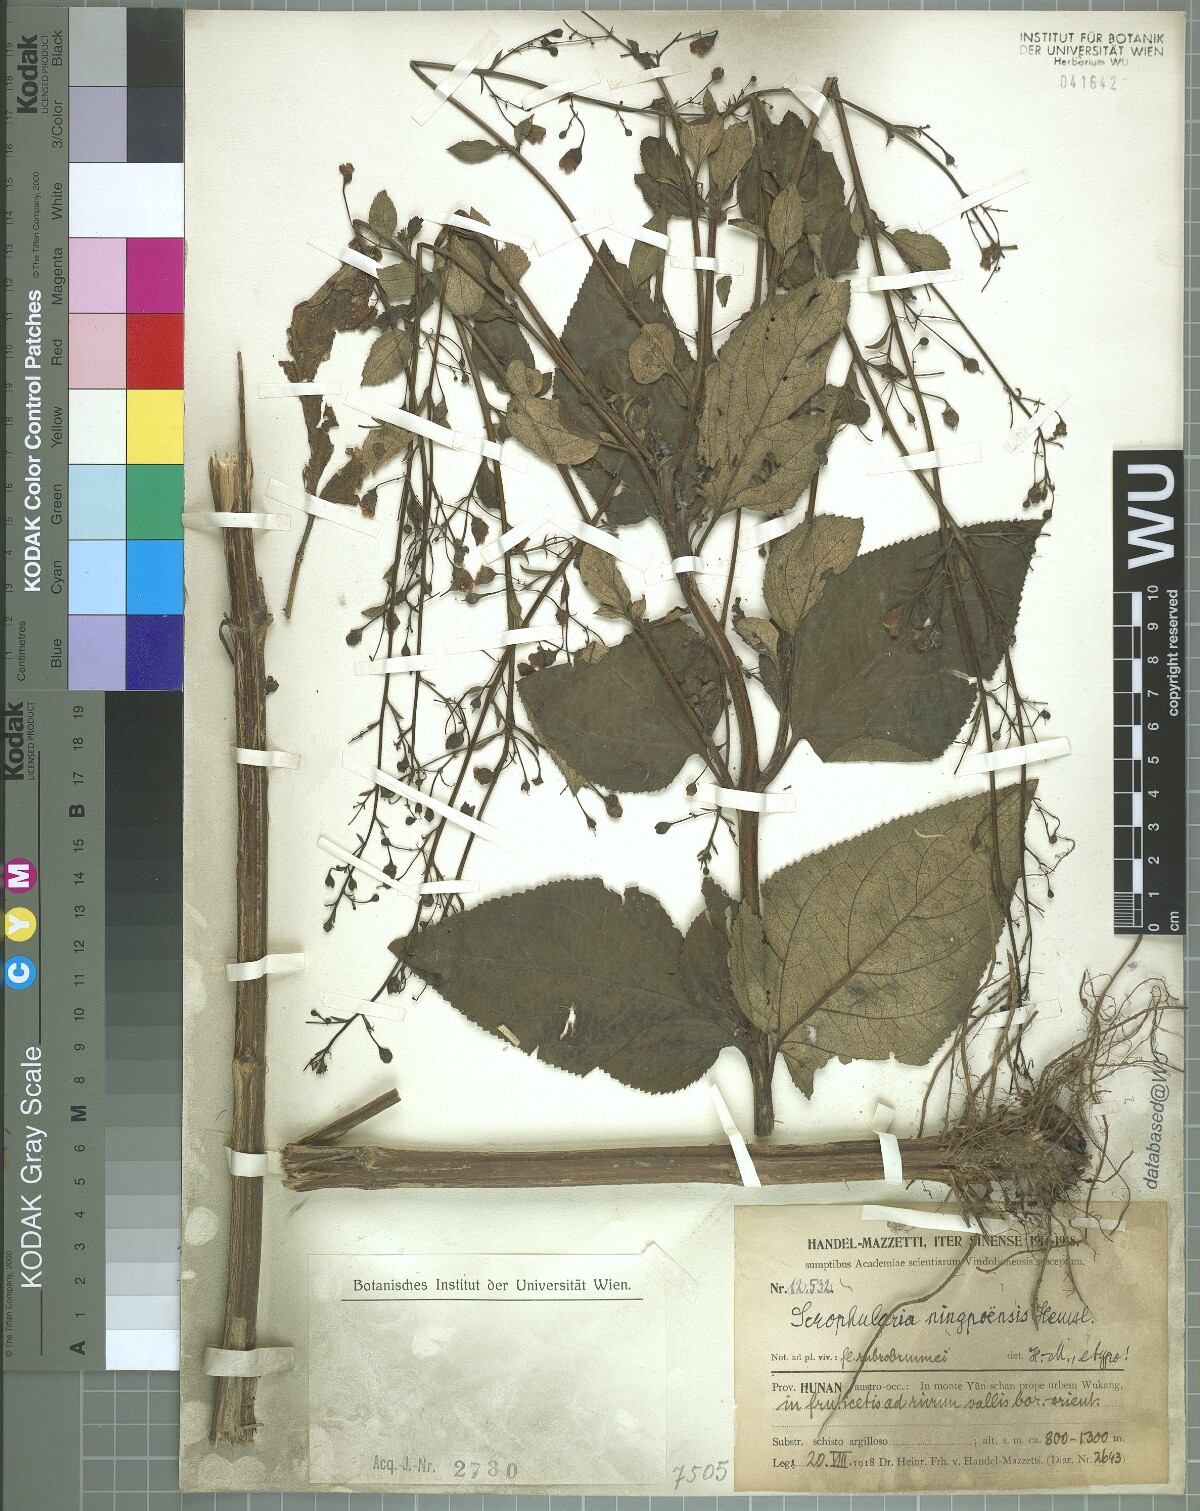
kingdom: Plantae
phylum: Tracheophyta
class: Magnoliopsida
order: Lamiales
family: Scrophulariaceae
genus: Scrophularia
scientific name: Scrophularia ningpoensis
